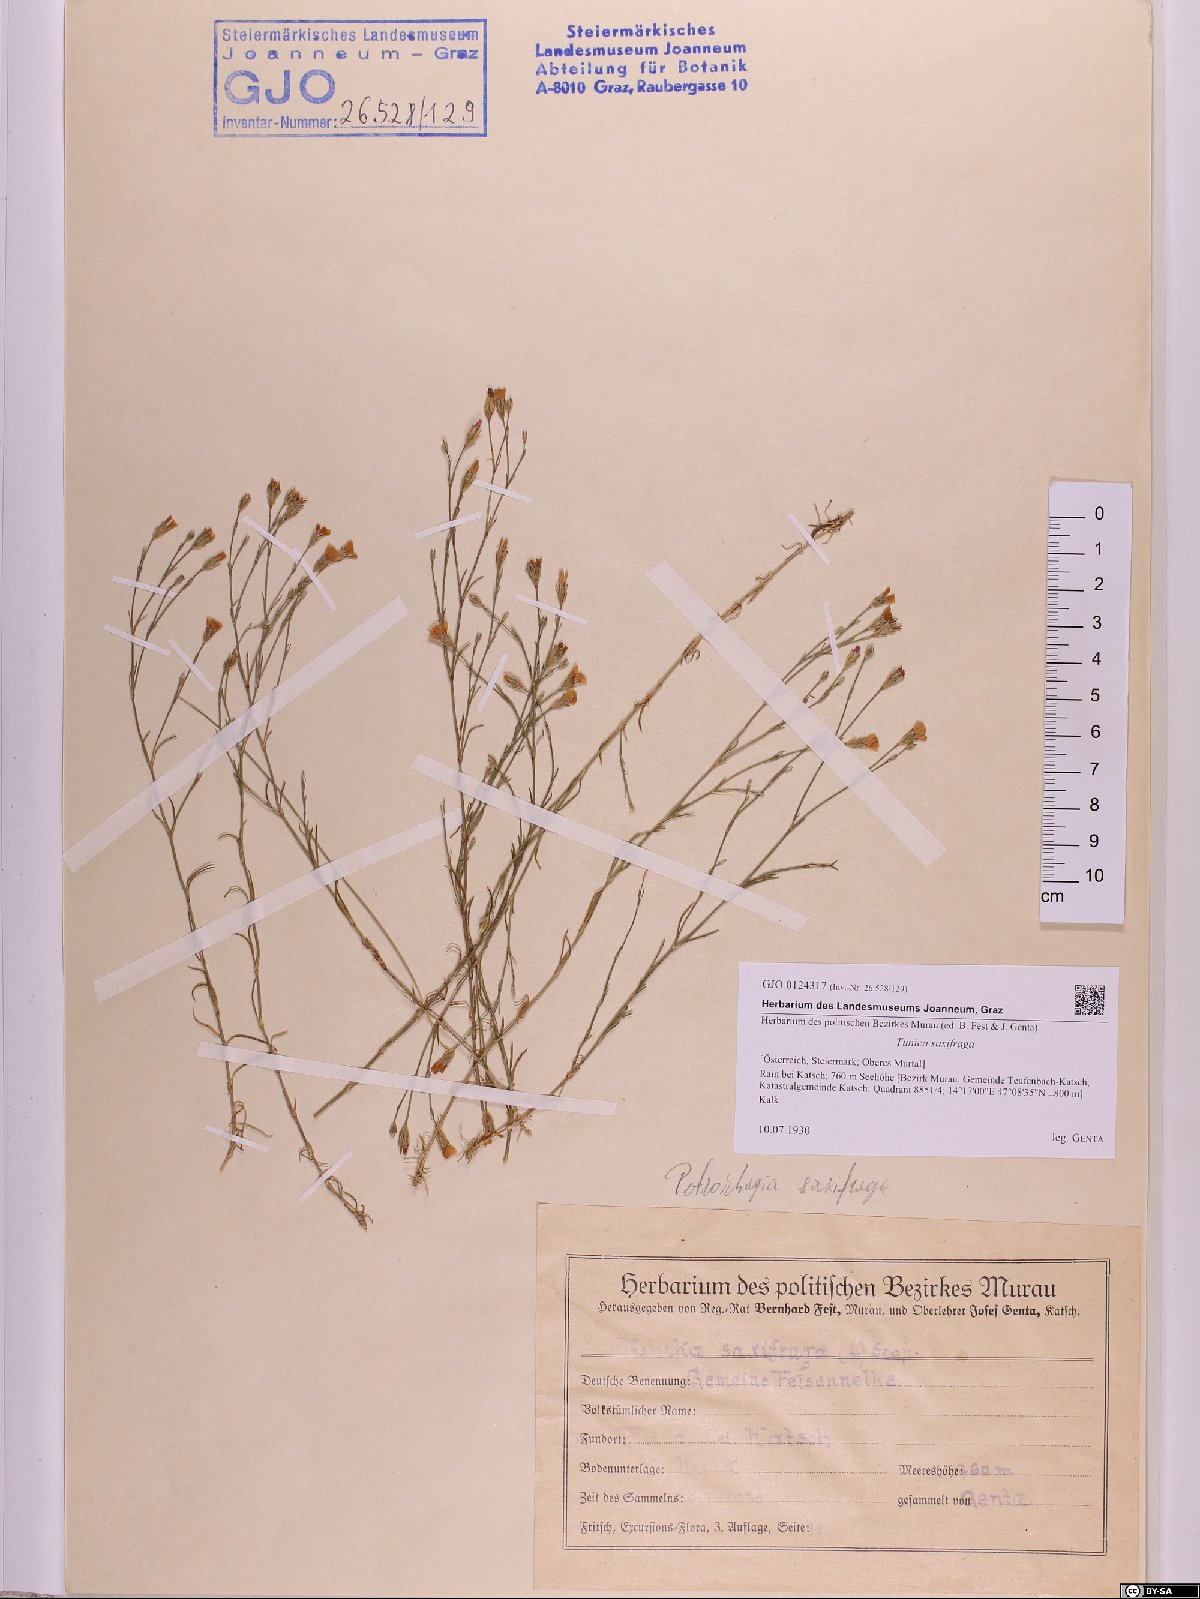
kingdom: Plantae
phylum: Tracheophyta
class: Magnoliopsida
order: Caryophyllales
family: Caryophyllaceae
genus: Petrorhagia
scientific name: Petrorhagia saxifraga
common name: Tunicflower
